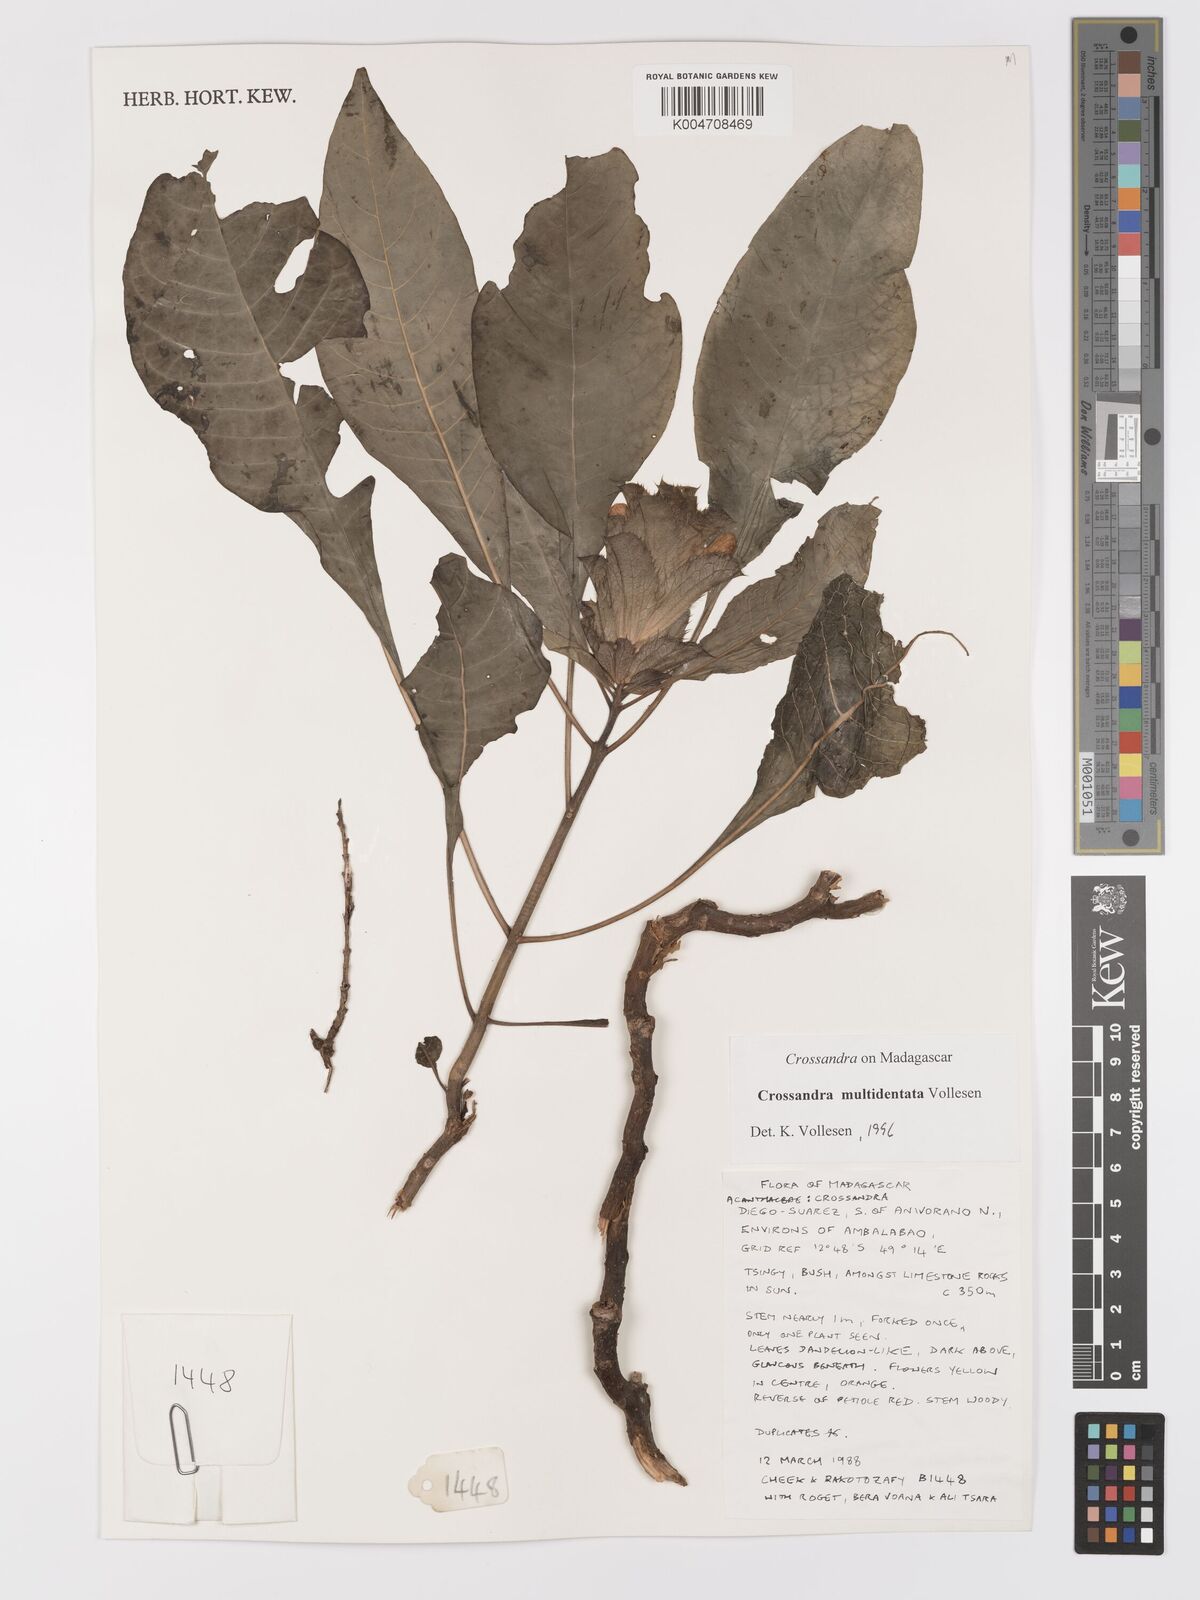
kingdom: Plantae
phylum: Tracheophyta
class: Magnoliopsida
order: Lamiales
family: Acanthaceae
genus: Crossandra
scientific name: Crossandra multidentata
